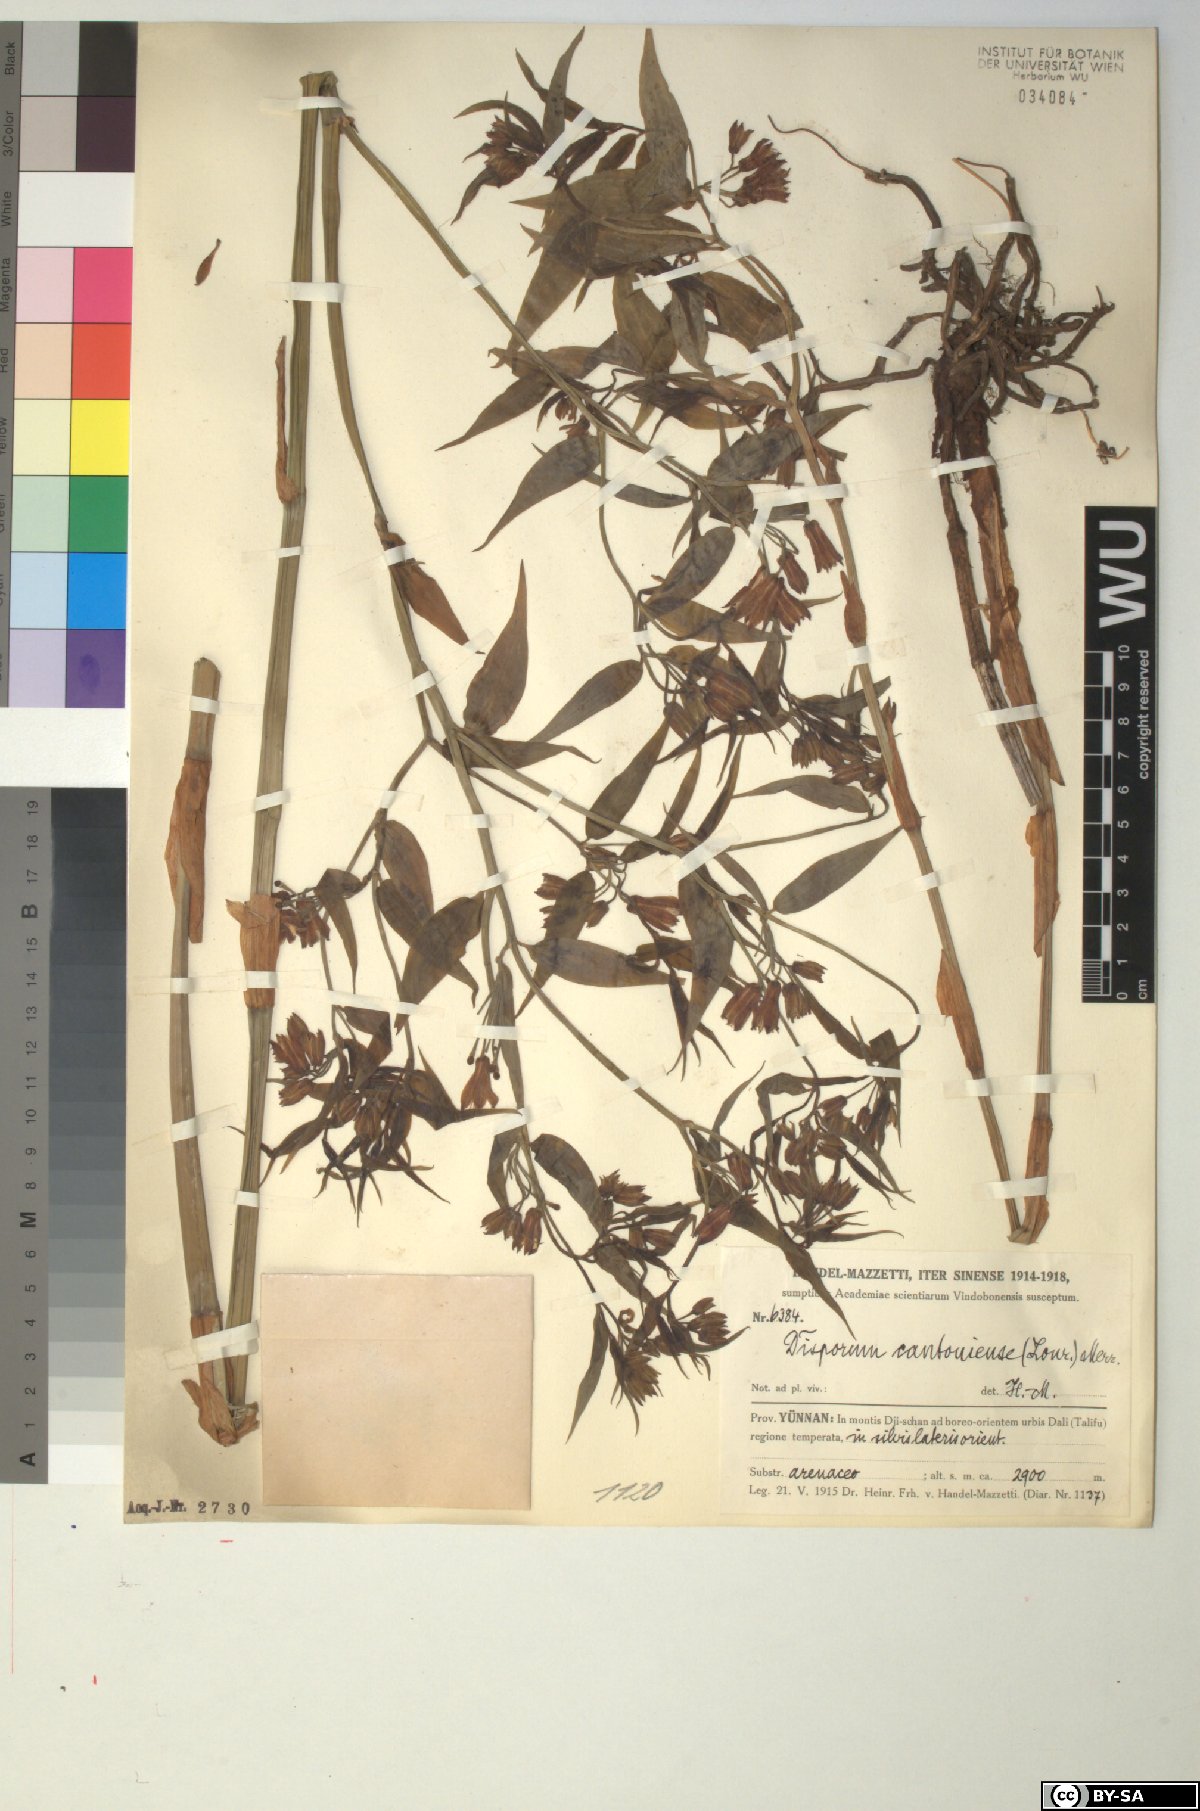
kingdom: Plantae
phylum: Tracheophyta
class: Liliopsida
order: Liliales
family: Colchicaceae
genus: Disporum
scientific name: Disporum cantoniense
